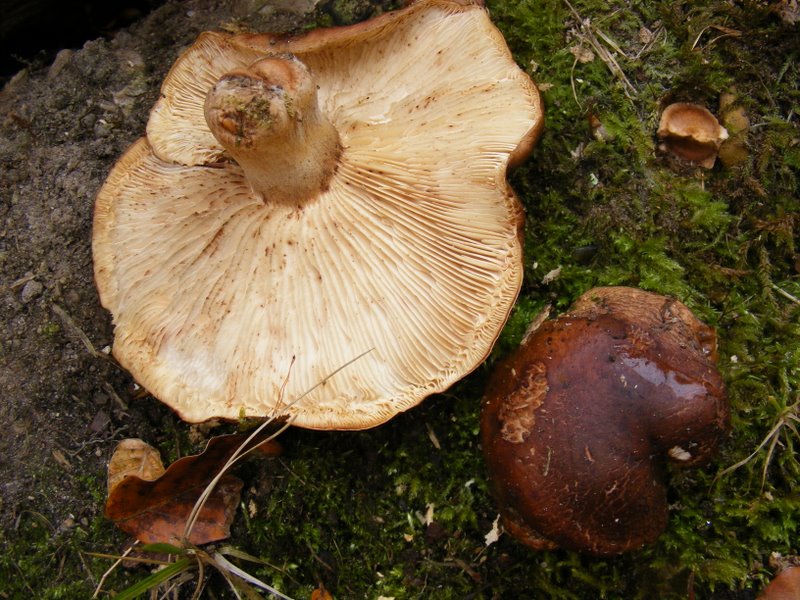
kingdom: Fungi
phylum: Basidiomycota
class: Agaricomycetes
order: Agaricales
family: Tricholomataceae
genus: Tricholoma
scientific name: Tricholoma ustale
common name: sveden ridderhat
